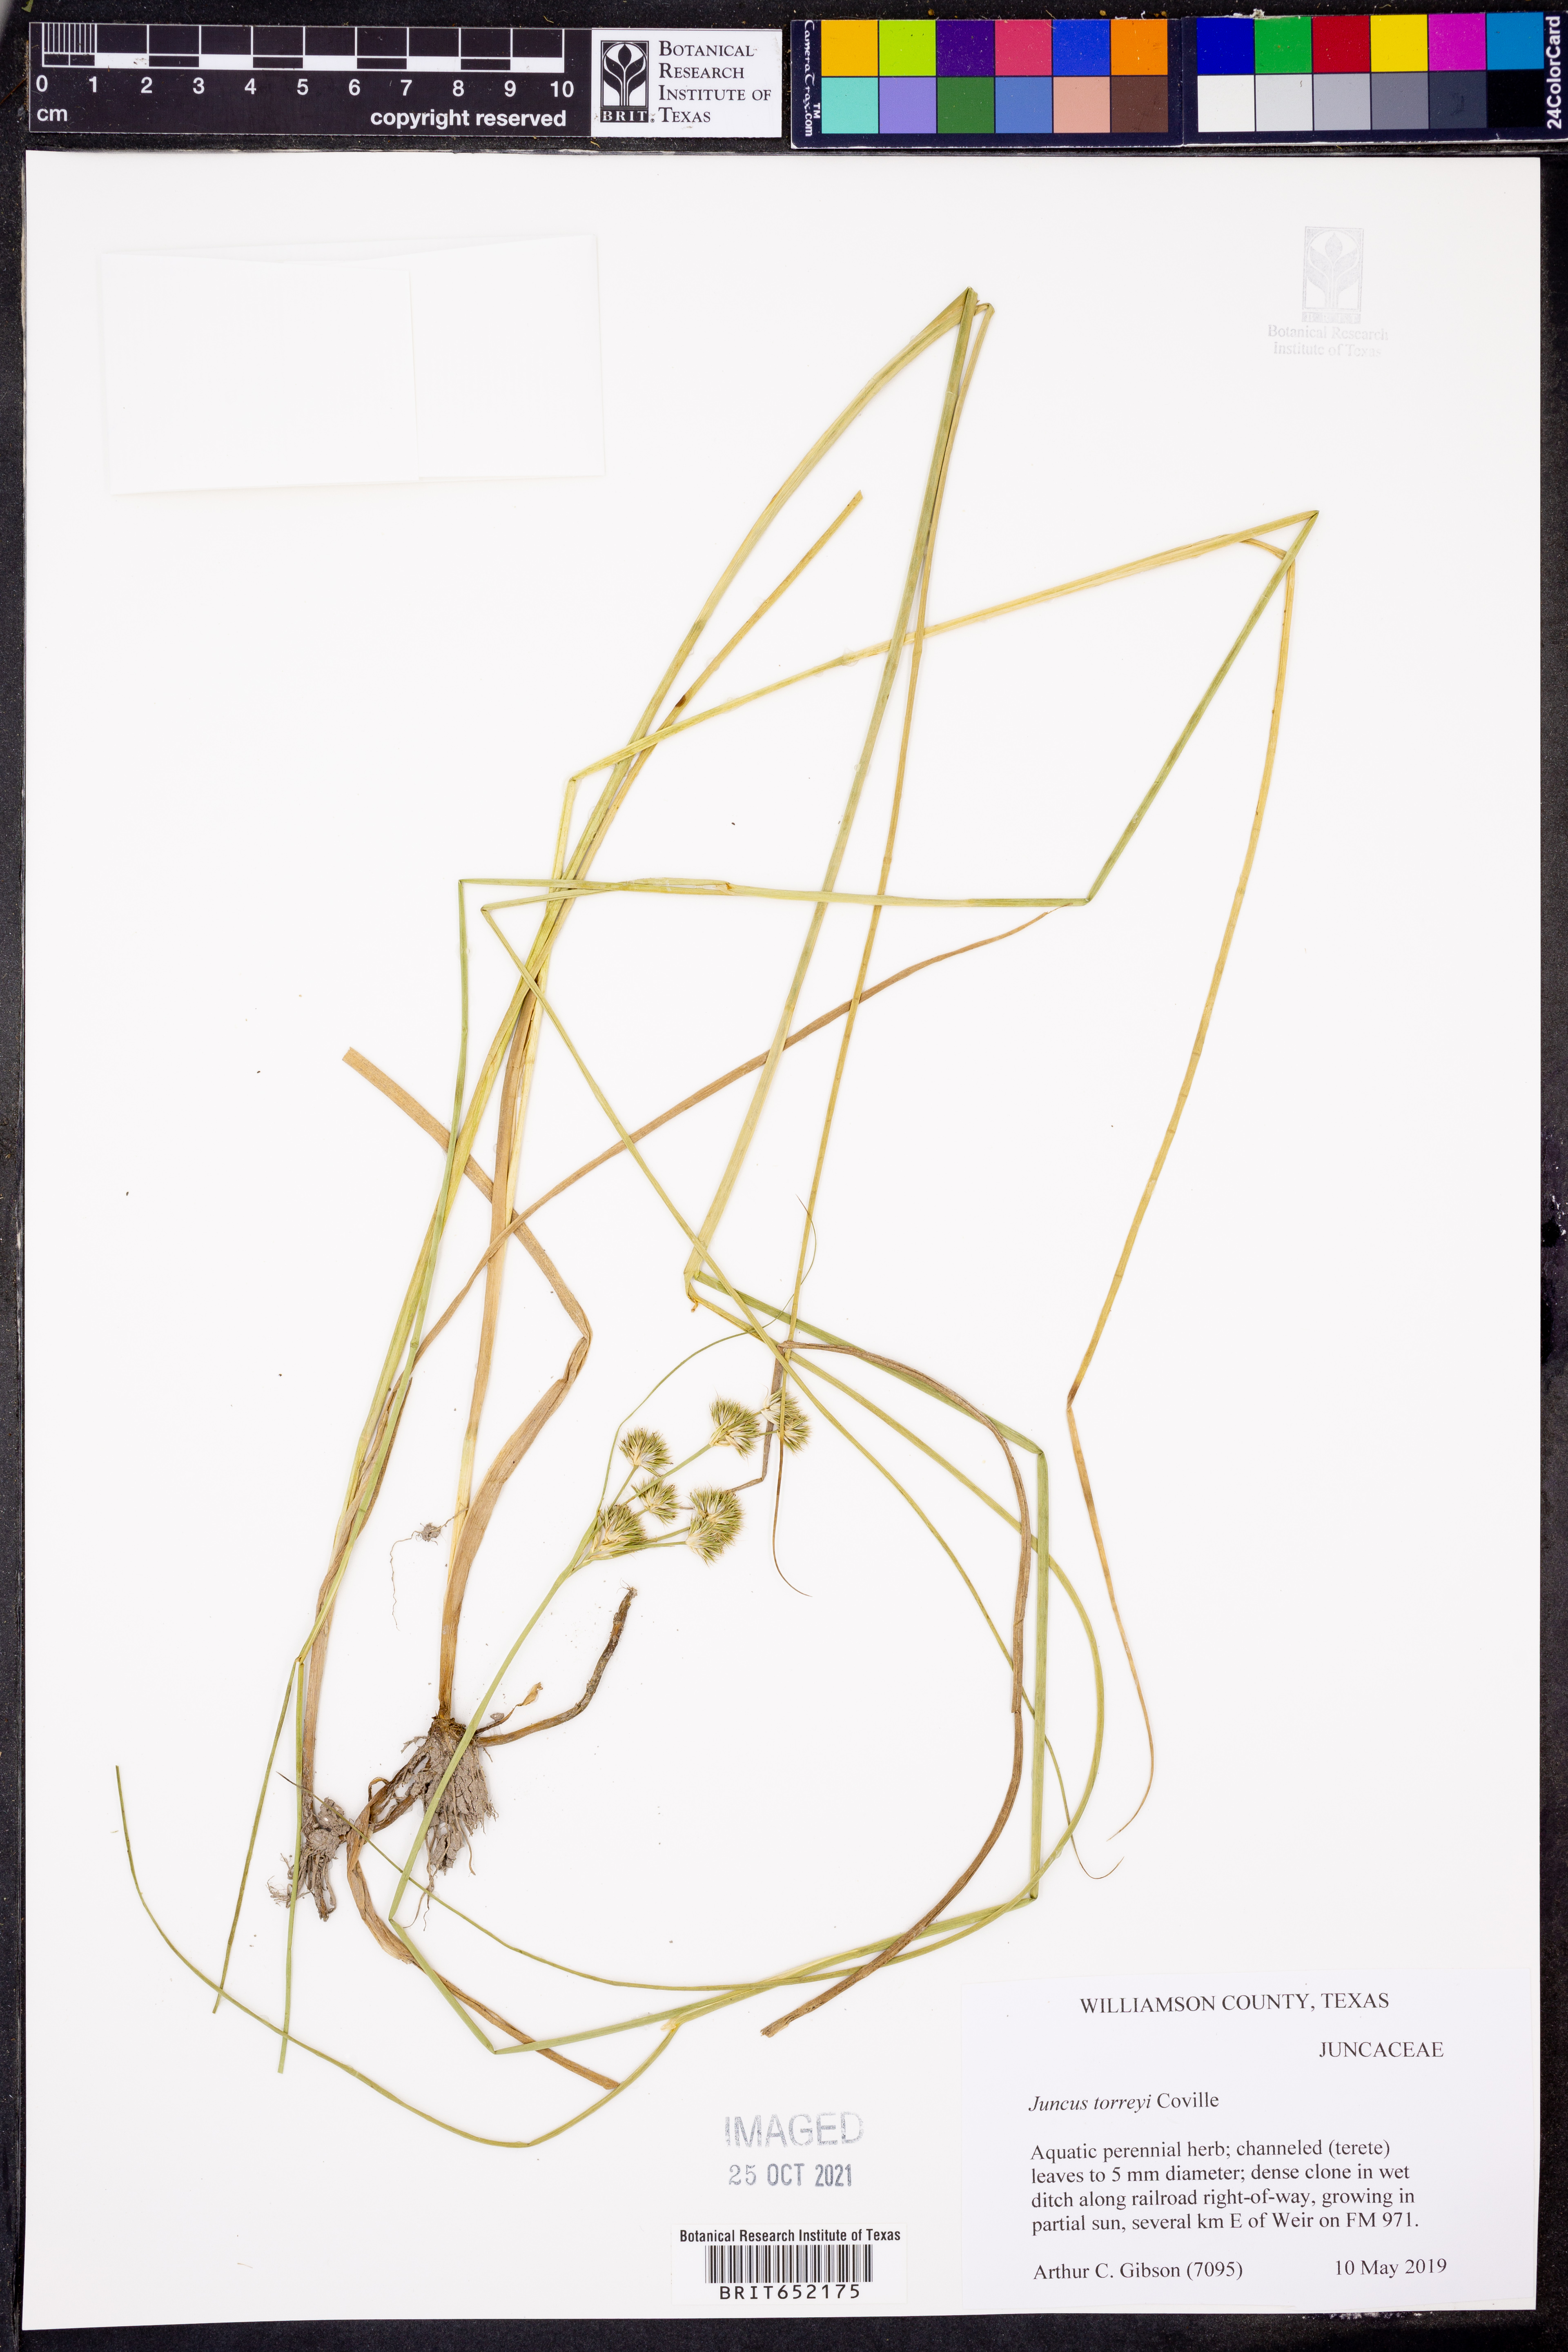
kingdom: Plantae
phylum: Tracheophyta
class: Liliopsida
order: Poales
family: Juncaceae
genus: Juncus
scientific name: Juncus torreyi
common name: Torrey's rush
